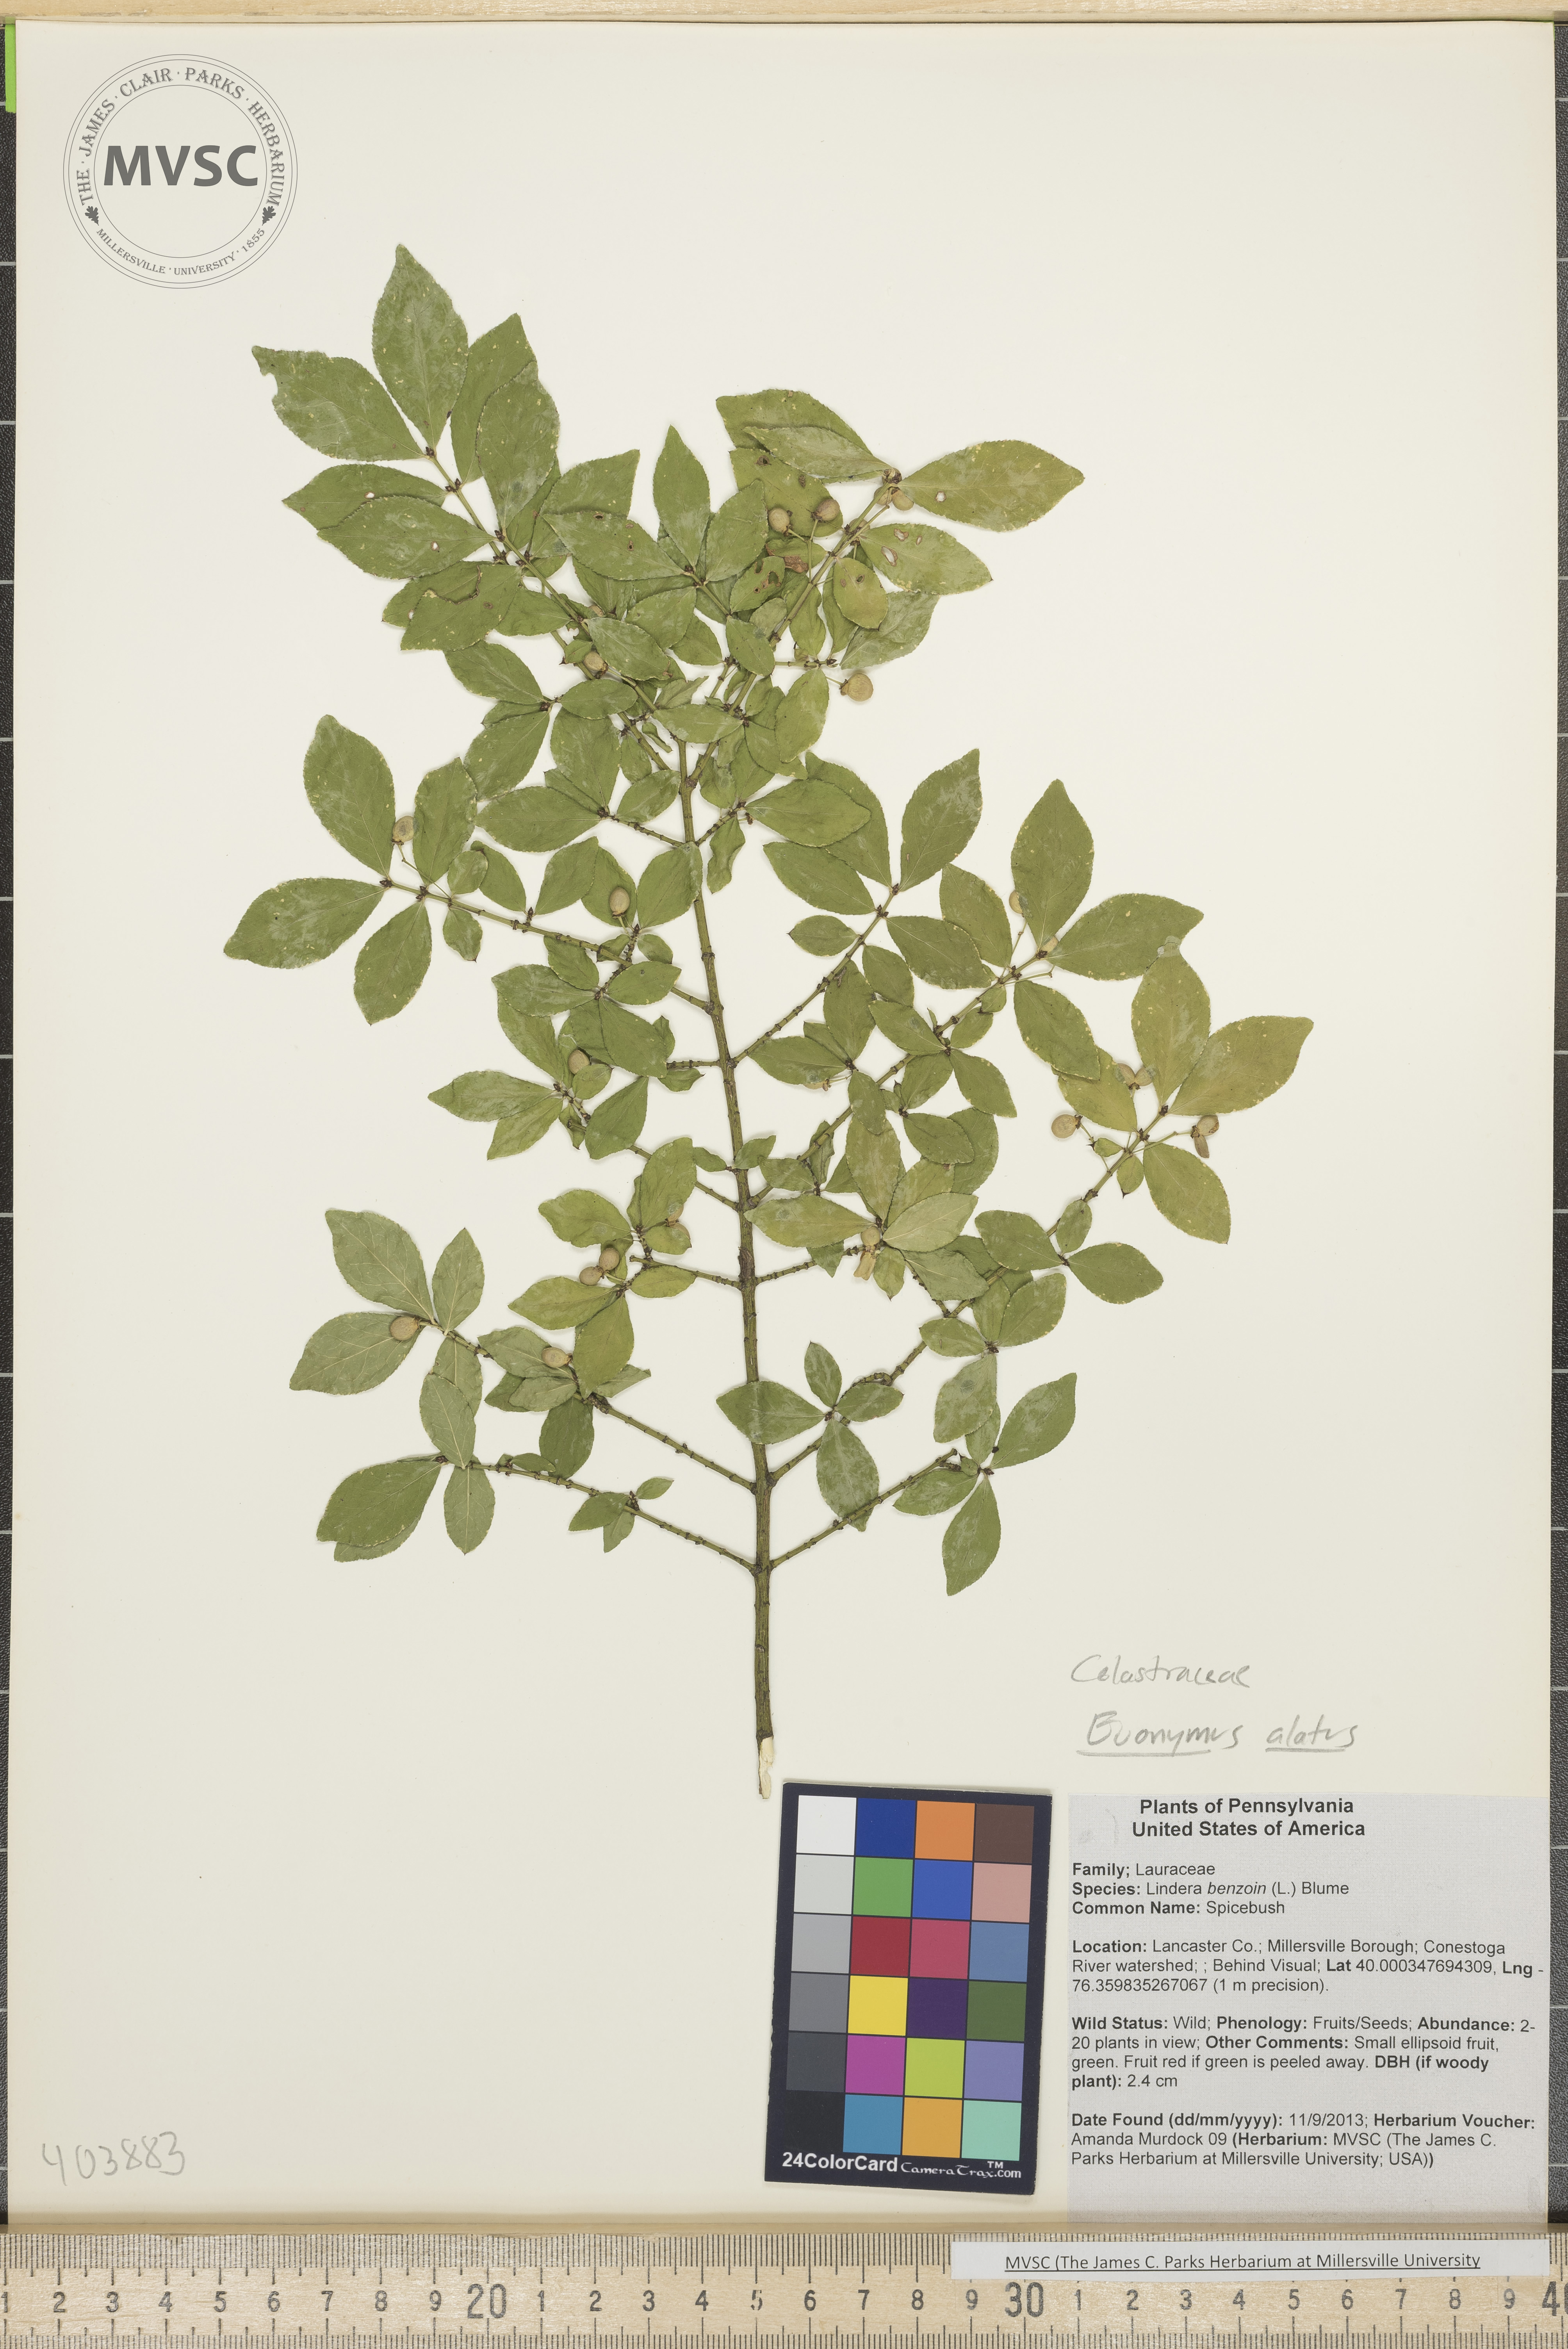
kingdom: Plantae
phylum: Tracheophyta
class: Magnoliopsida
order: Celastrales
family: Celastraceae
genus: Euonymus
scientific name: Euonymus alatus
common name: Winged Euonymus
